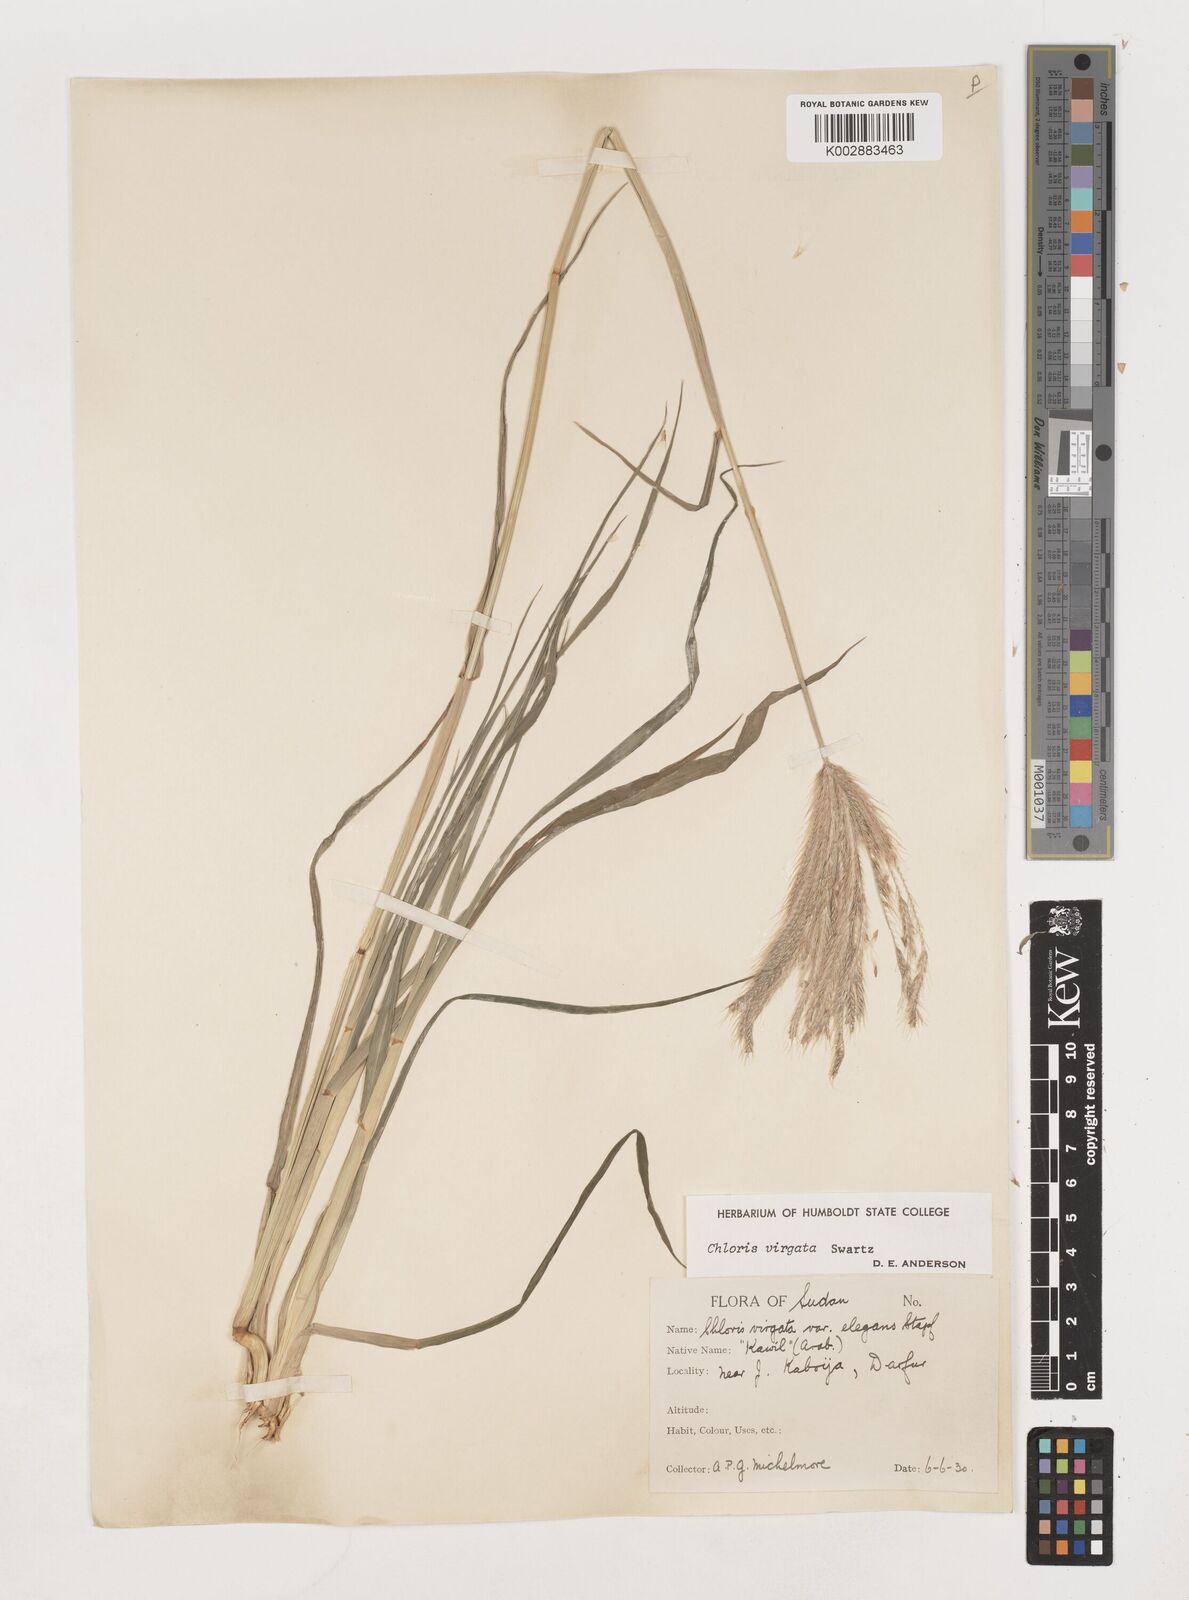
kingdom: Plantae
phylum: Tracheophyta
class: Liliopsida
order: Poales
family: Poaceae
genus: Chloris
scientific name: Chloris virgata
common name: Feathery rhodes-grass
